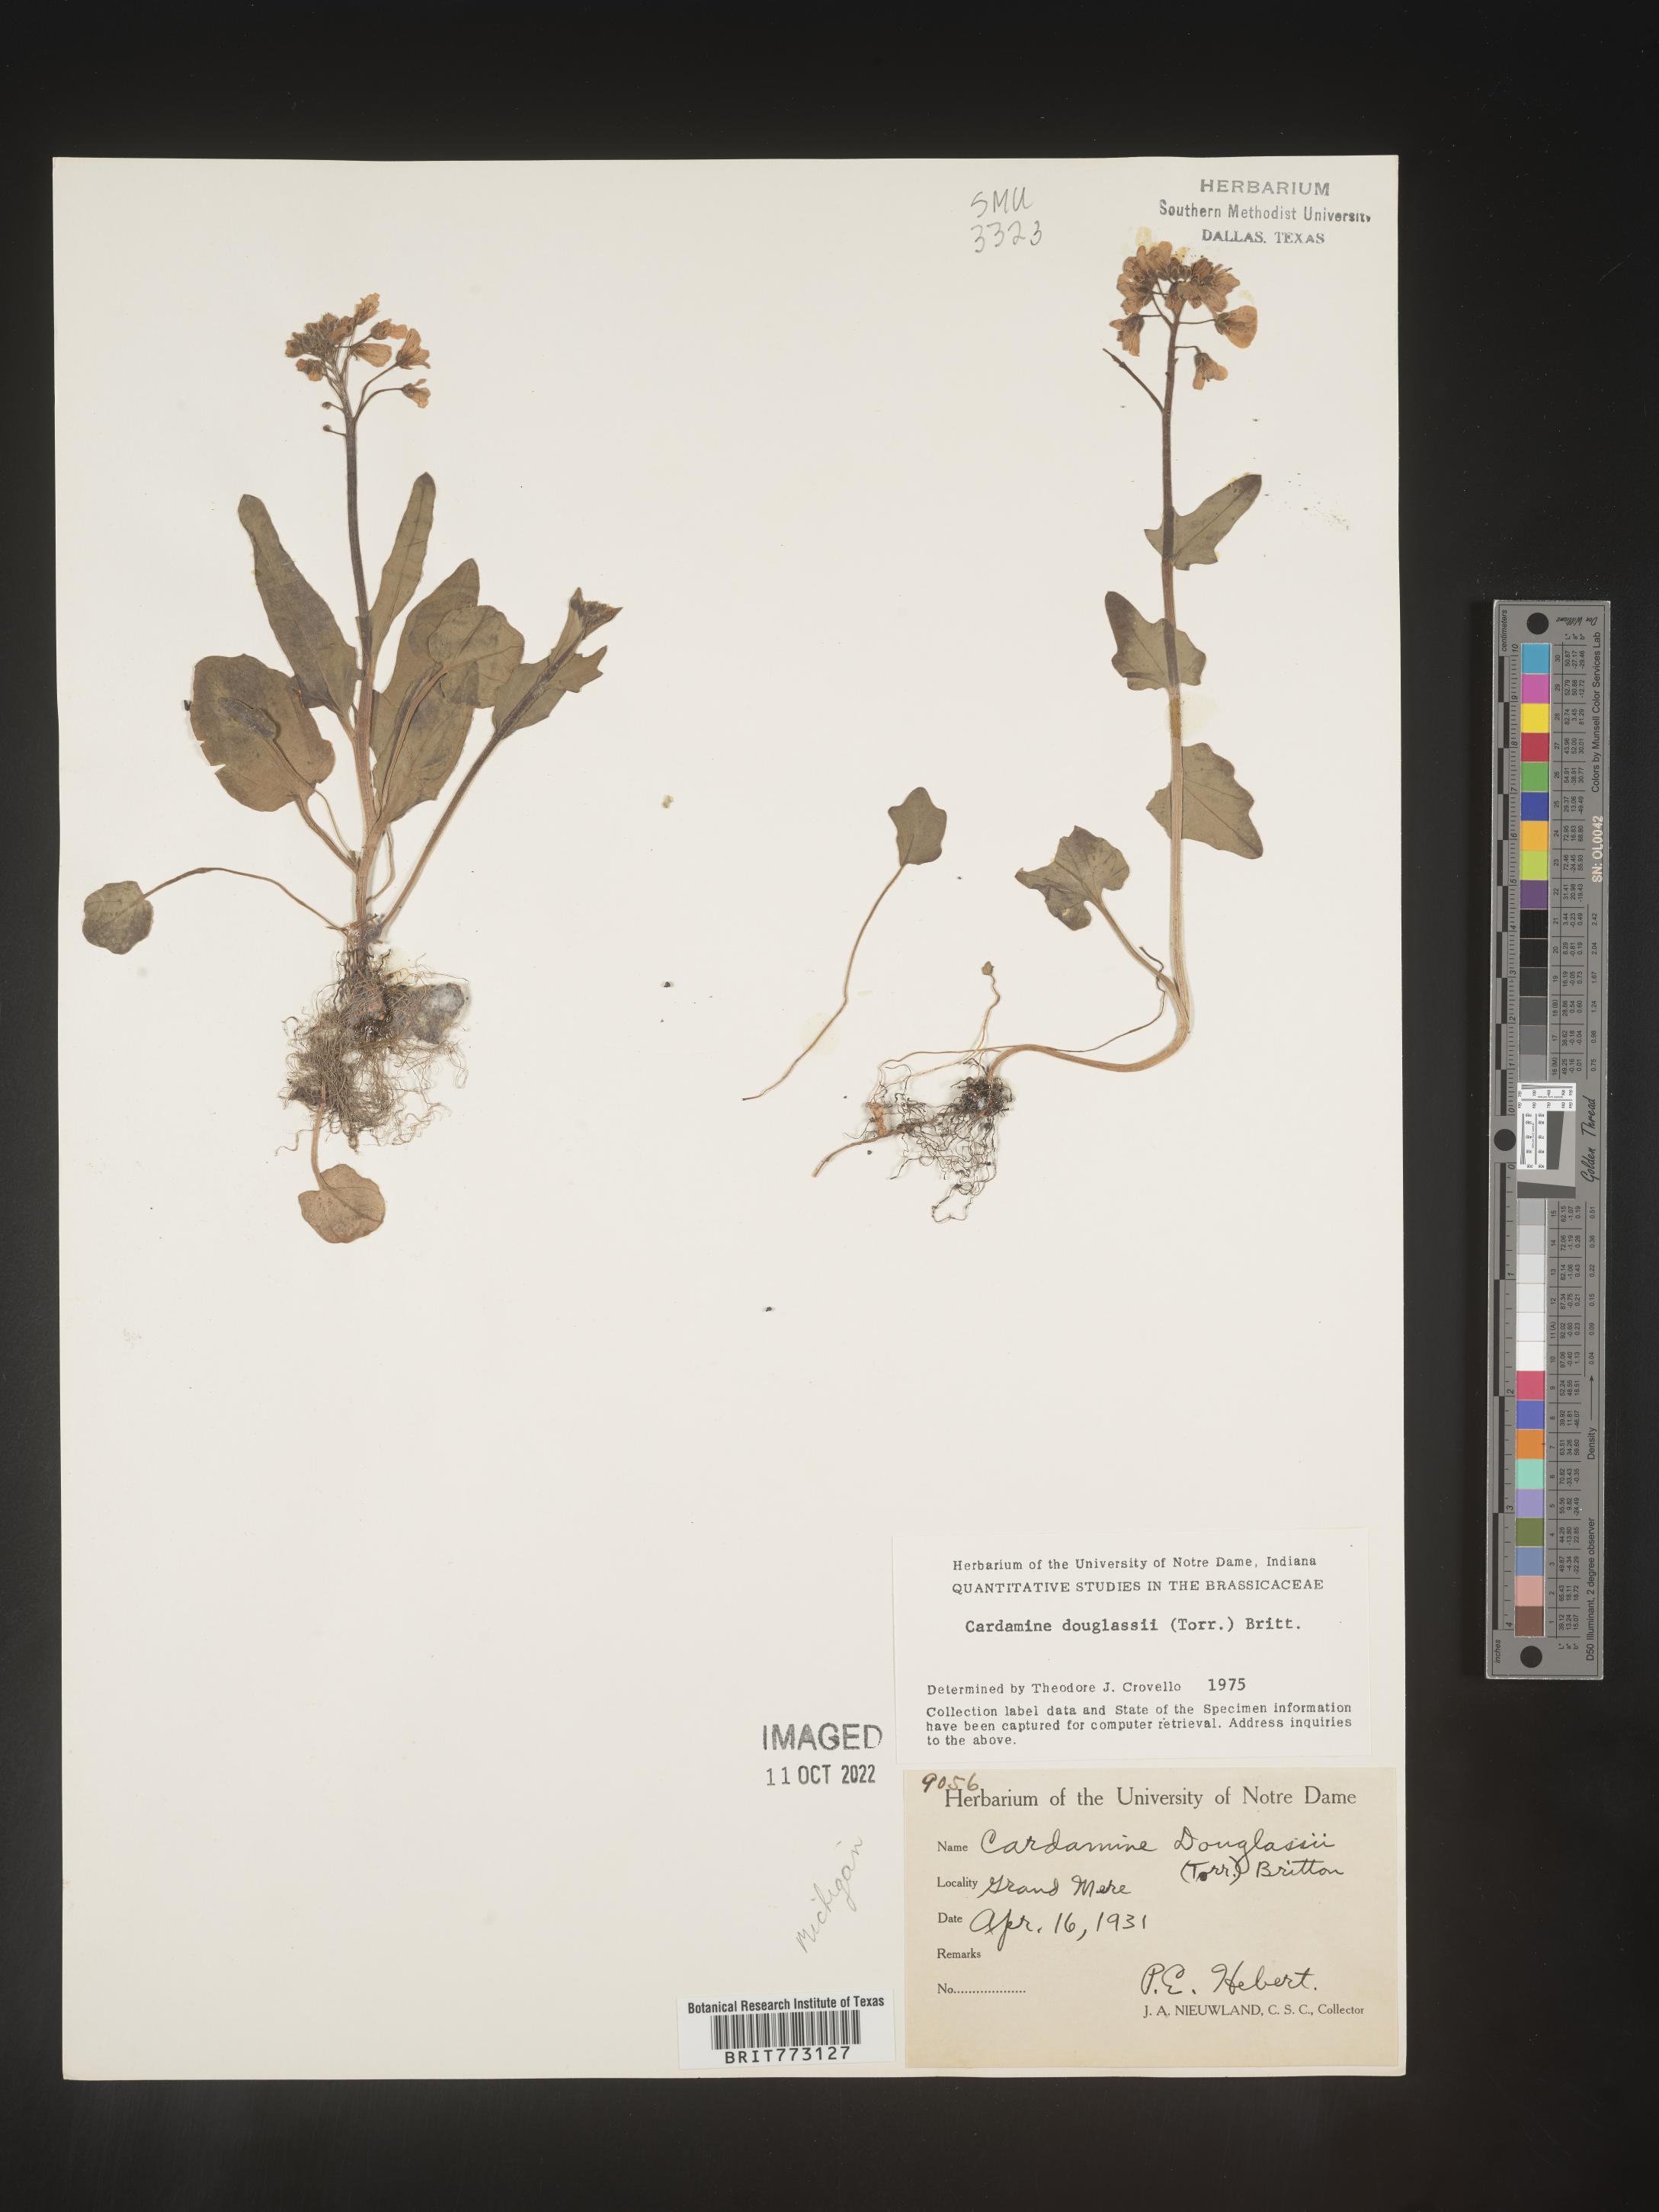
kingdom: Plantae
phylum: Tracheophyta
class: Magnoliopsida
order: Brassicales
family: Brassicaceae
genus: Cardamine
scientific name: Cardamine
